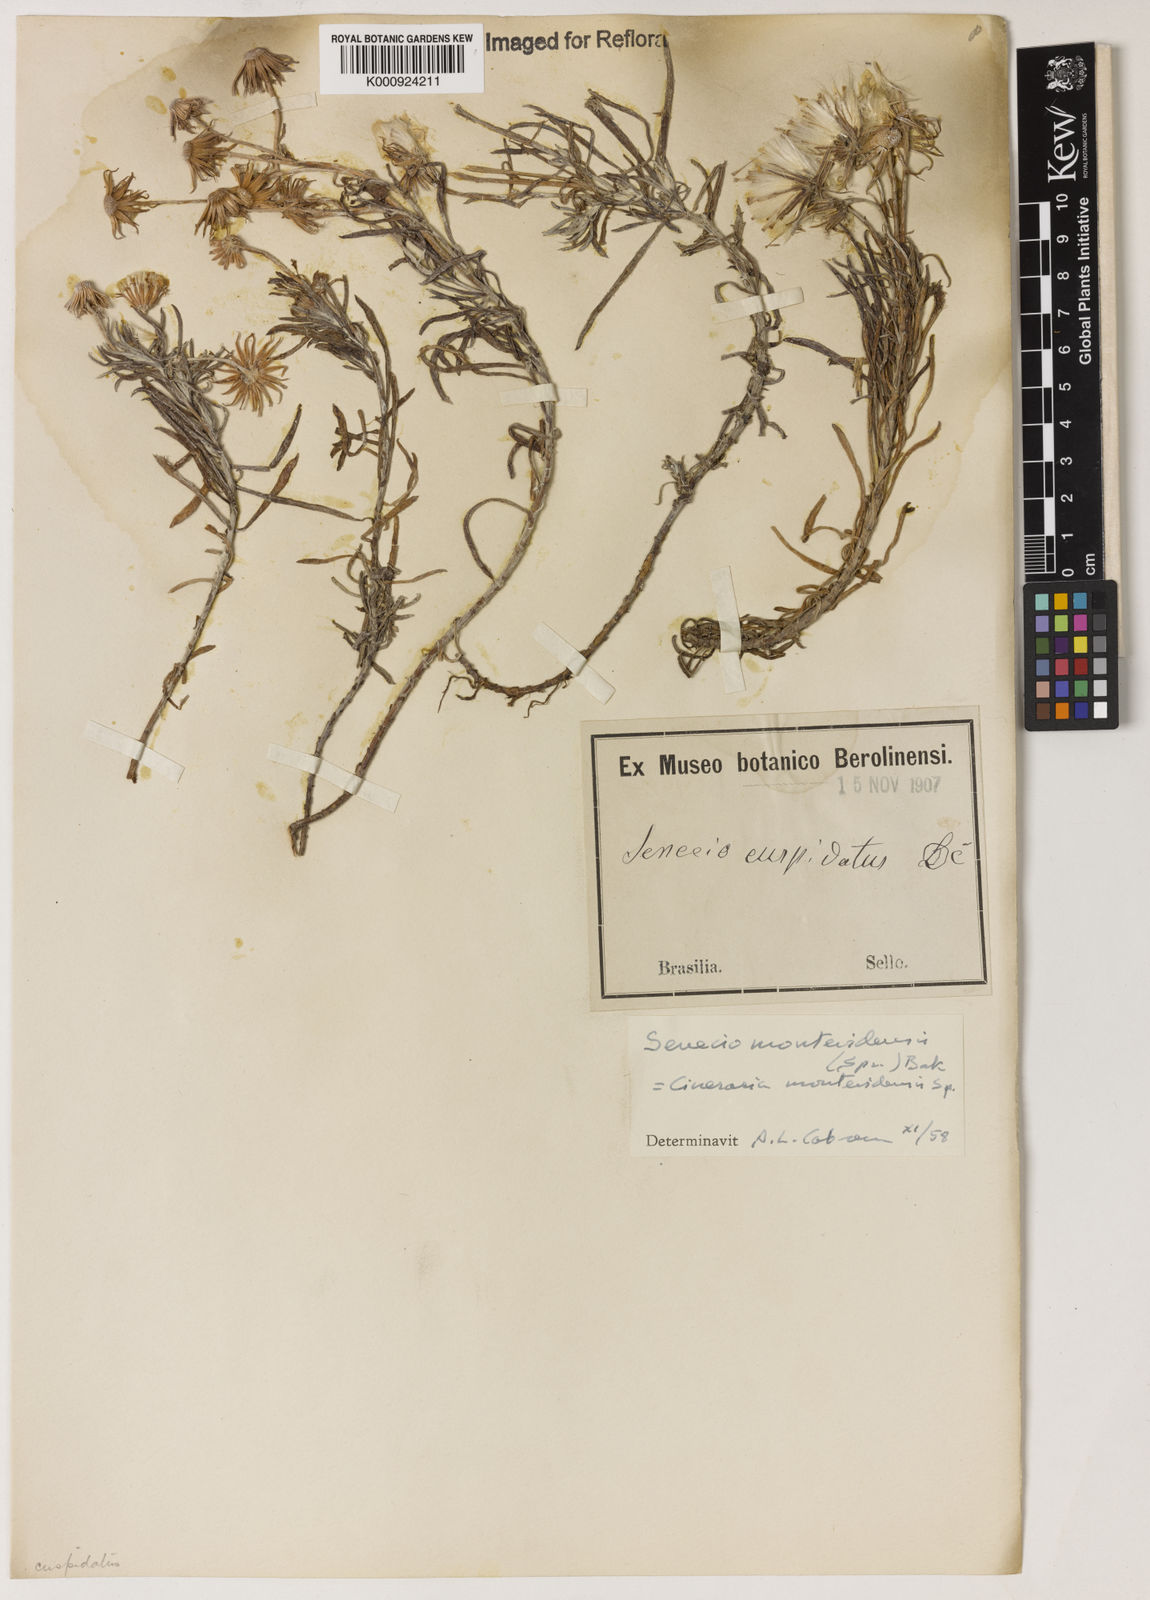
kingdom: Plantae
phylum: Tracheophyta
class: Magnoliopsida
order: Asterales
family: Asteraceae
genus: Senecio
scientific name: Senecio montevidensis
